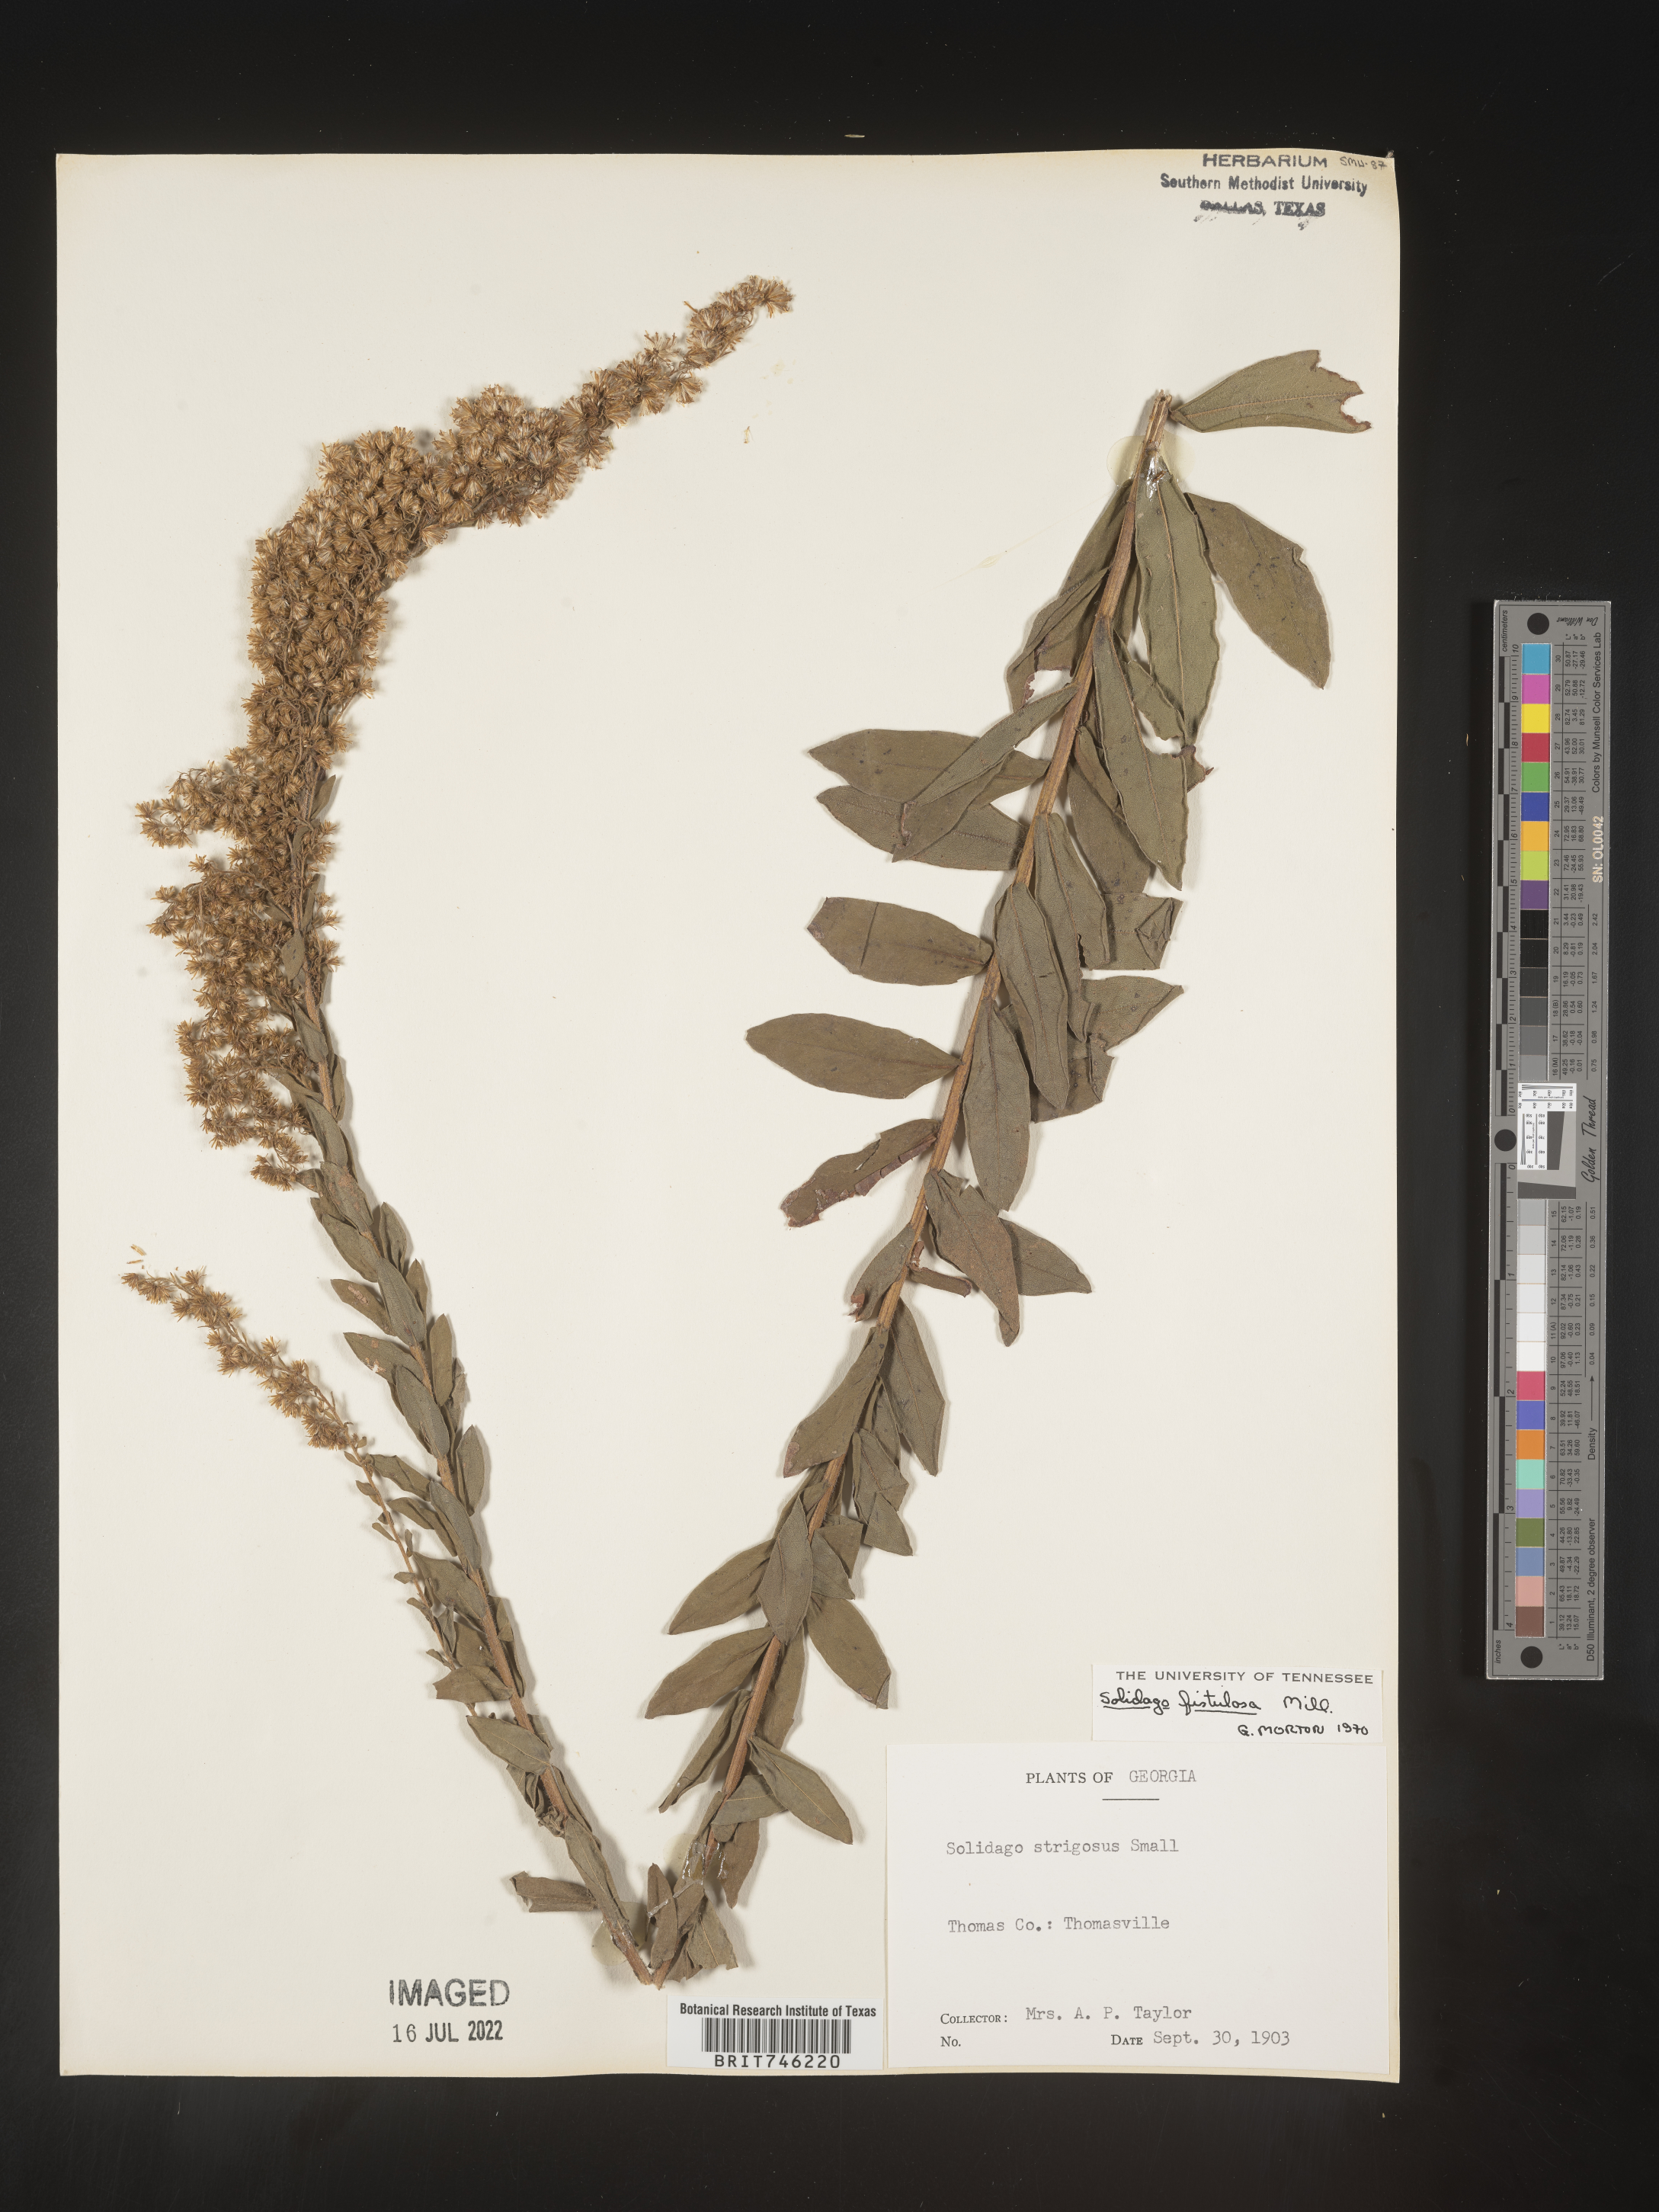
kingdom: Plantae
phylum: Tracheophyta
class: Magnoliopsida
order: Asterales
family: Asteraceae
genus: Solidago
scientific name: Solidago fistulosa
